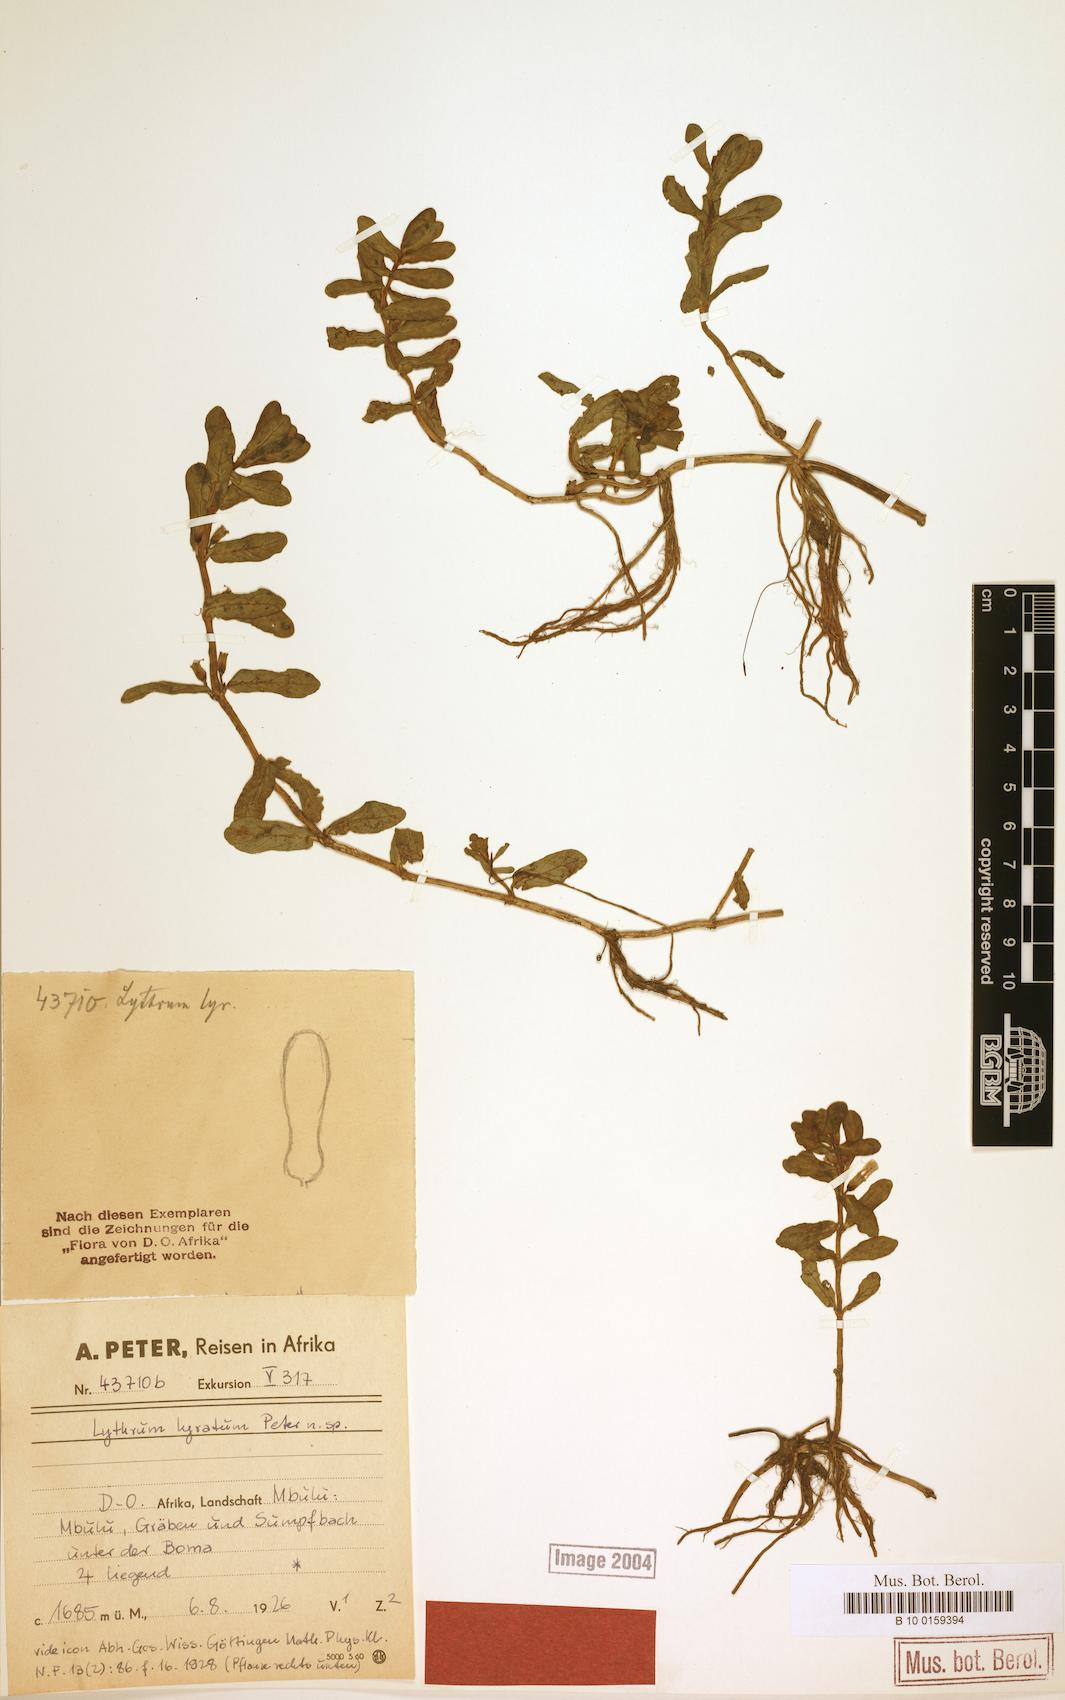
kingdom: Plantae
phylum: Tracheophyta
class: Magnoliopsida
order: Myrtales
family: Lythraceae
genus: Lythrum
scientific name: Lythrum rotundifolium
